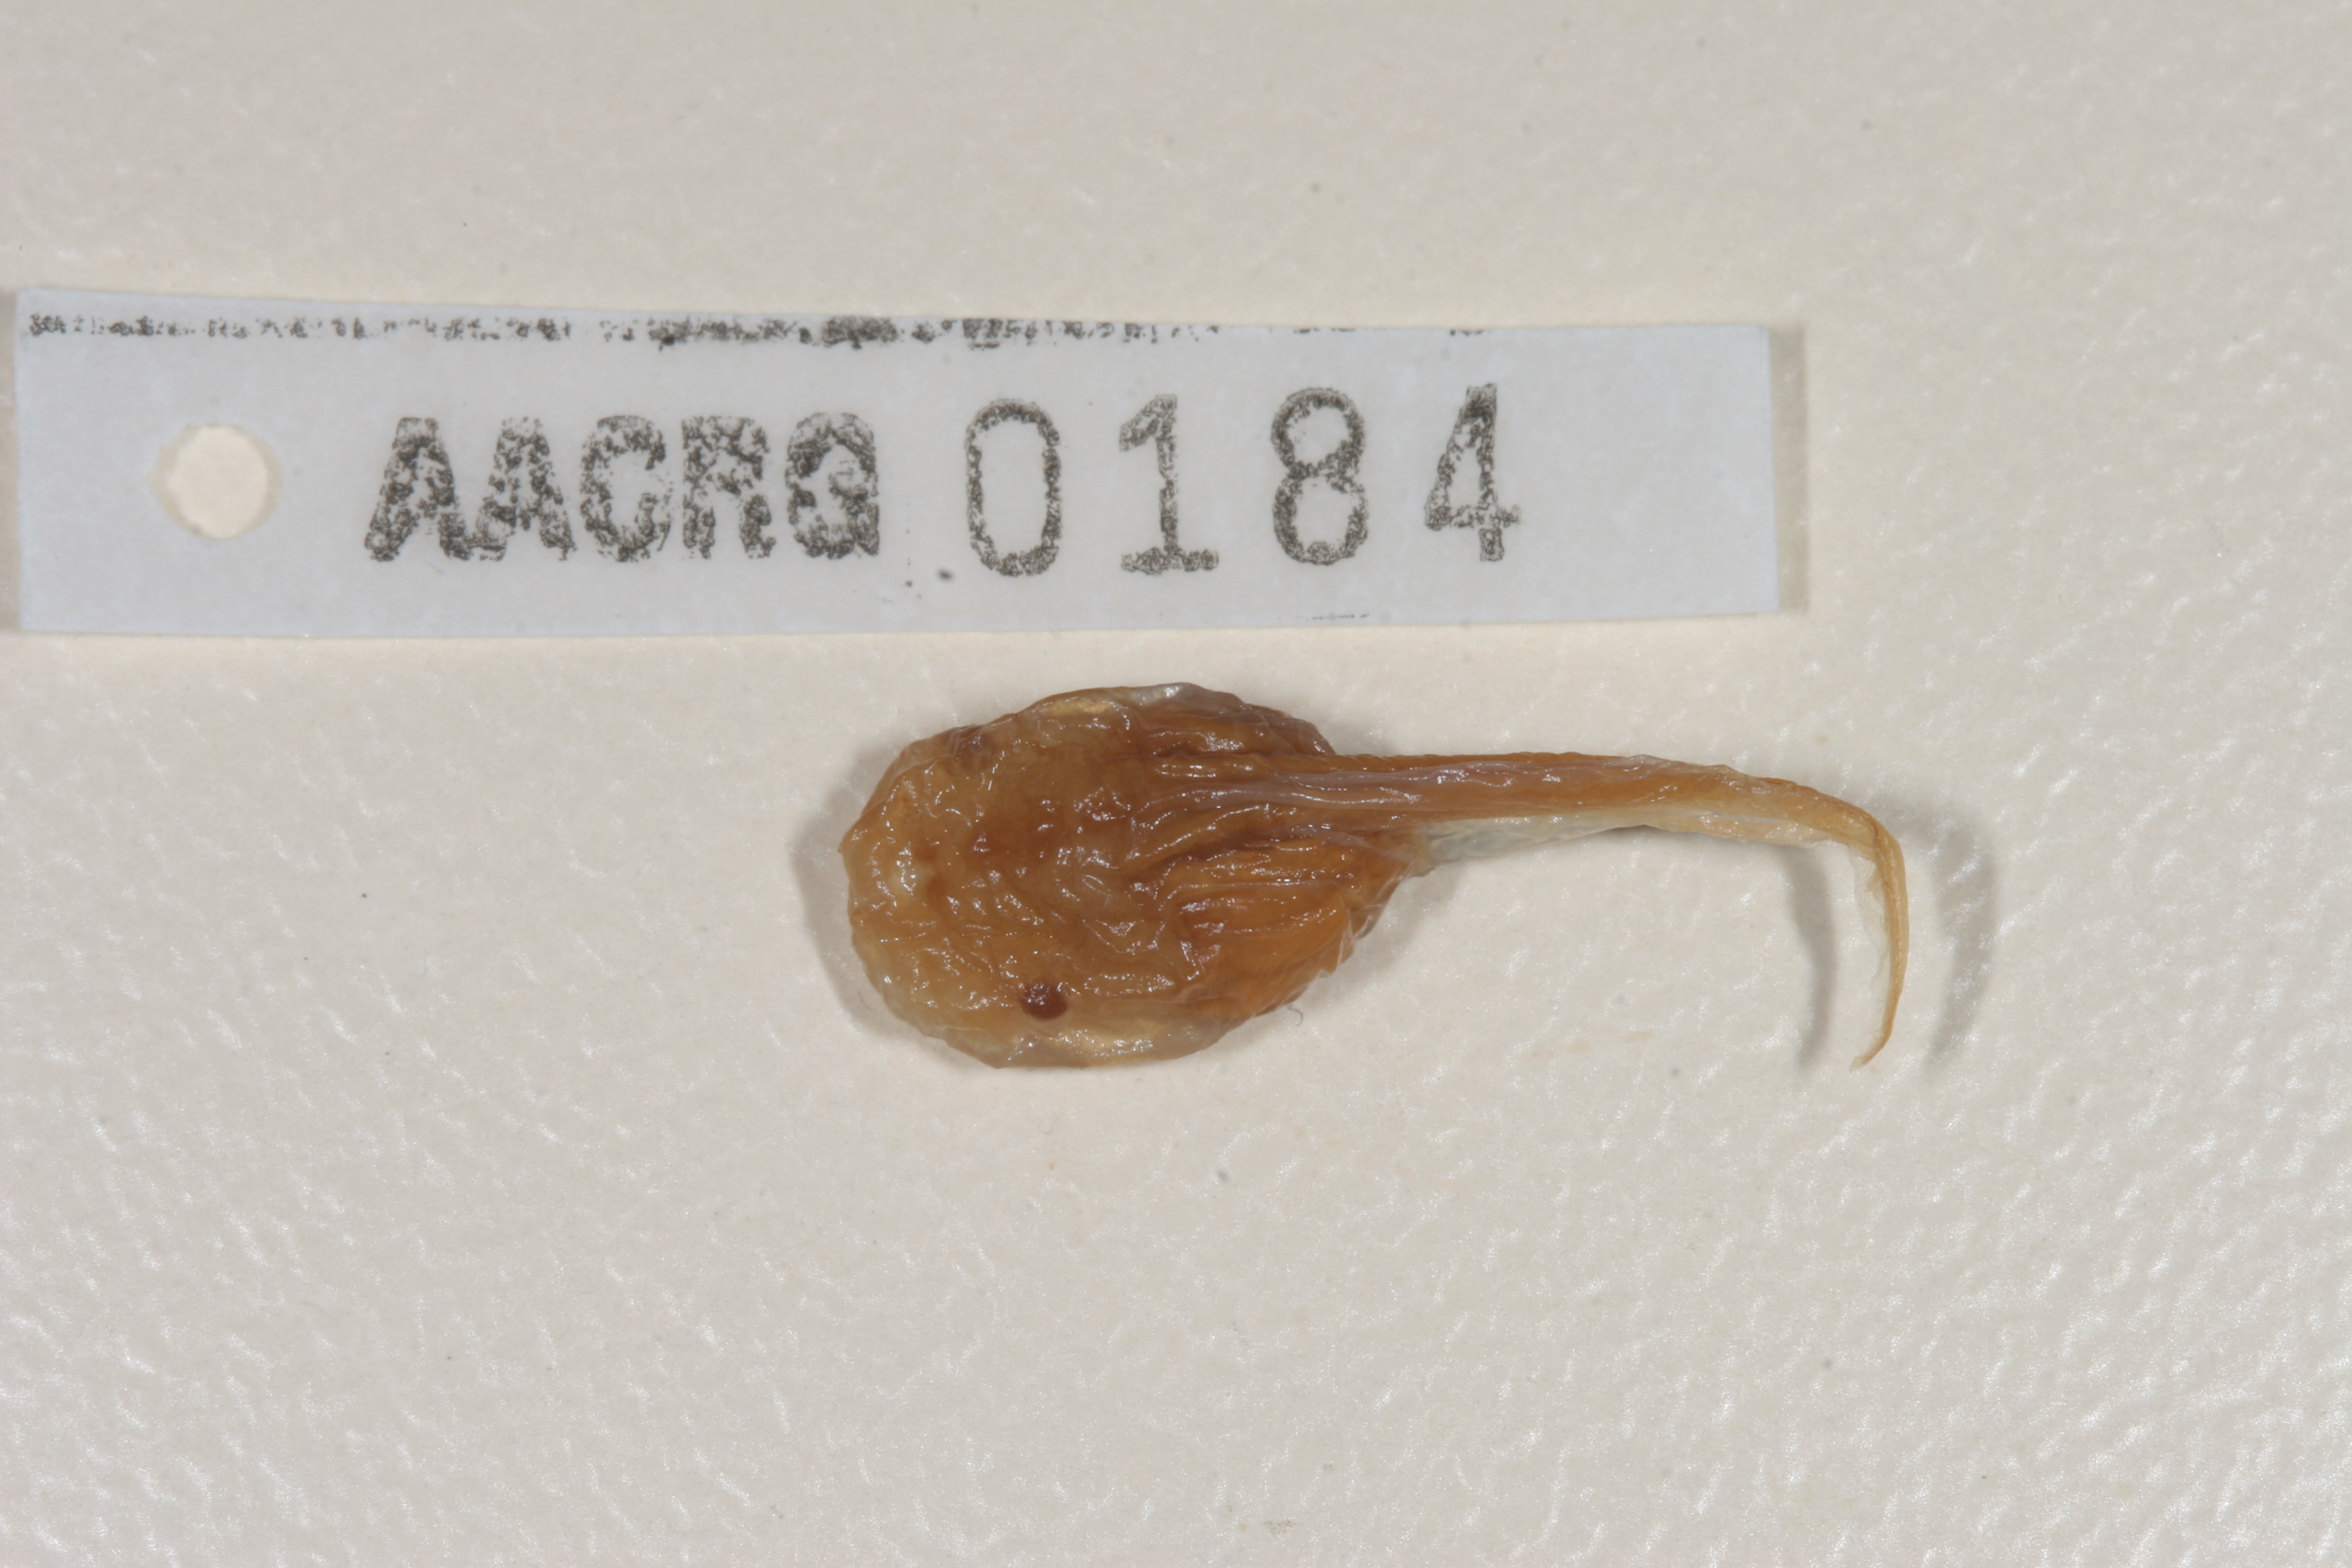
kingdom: Animalia
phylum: Chordata
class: Amphibia
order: Anura
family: Microhylidae
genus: Phrynomantis
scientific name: Phrynomantis bifasciatus
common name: Banded rubber frog
